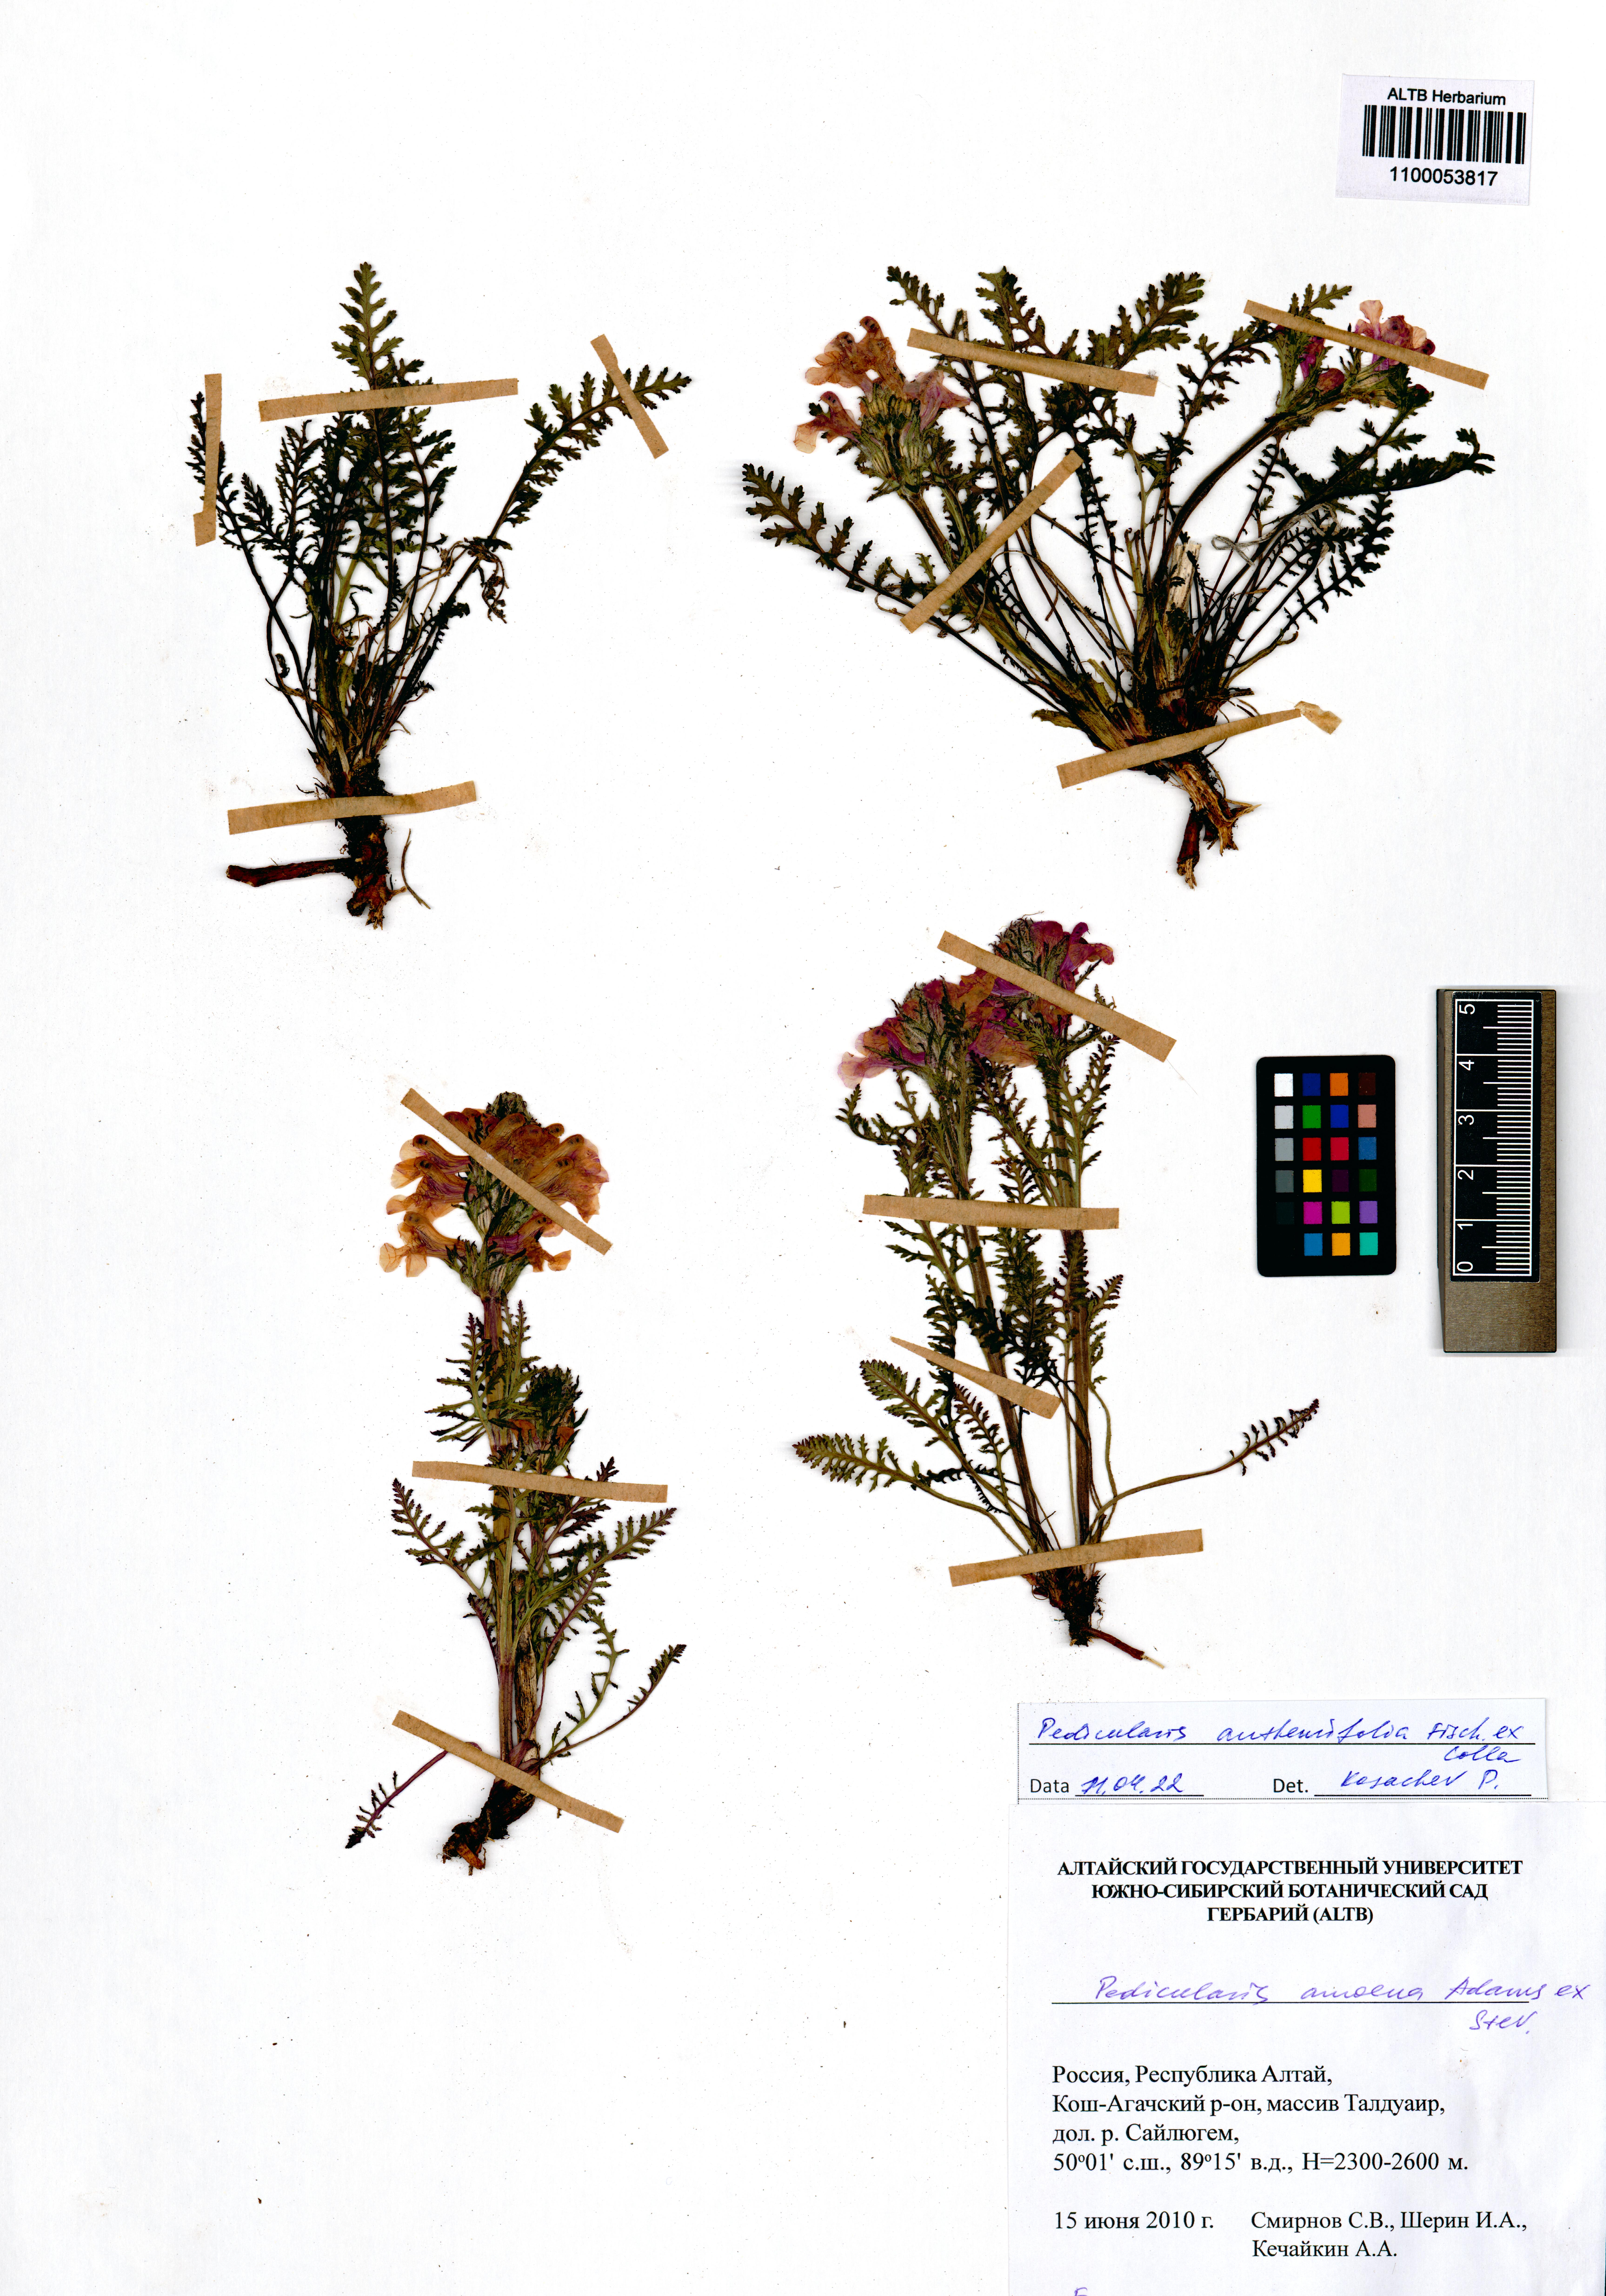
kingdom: Plantae
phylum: Tracheophyta
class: Magnoliopsida
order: Lamiales
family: Orobanchaceae
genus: Pedicularis
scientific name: Pedicularis anthemifolia
